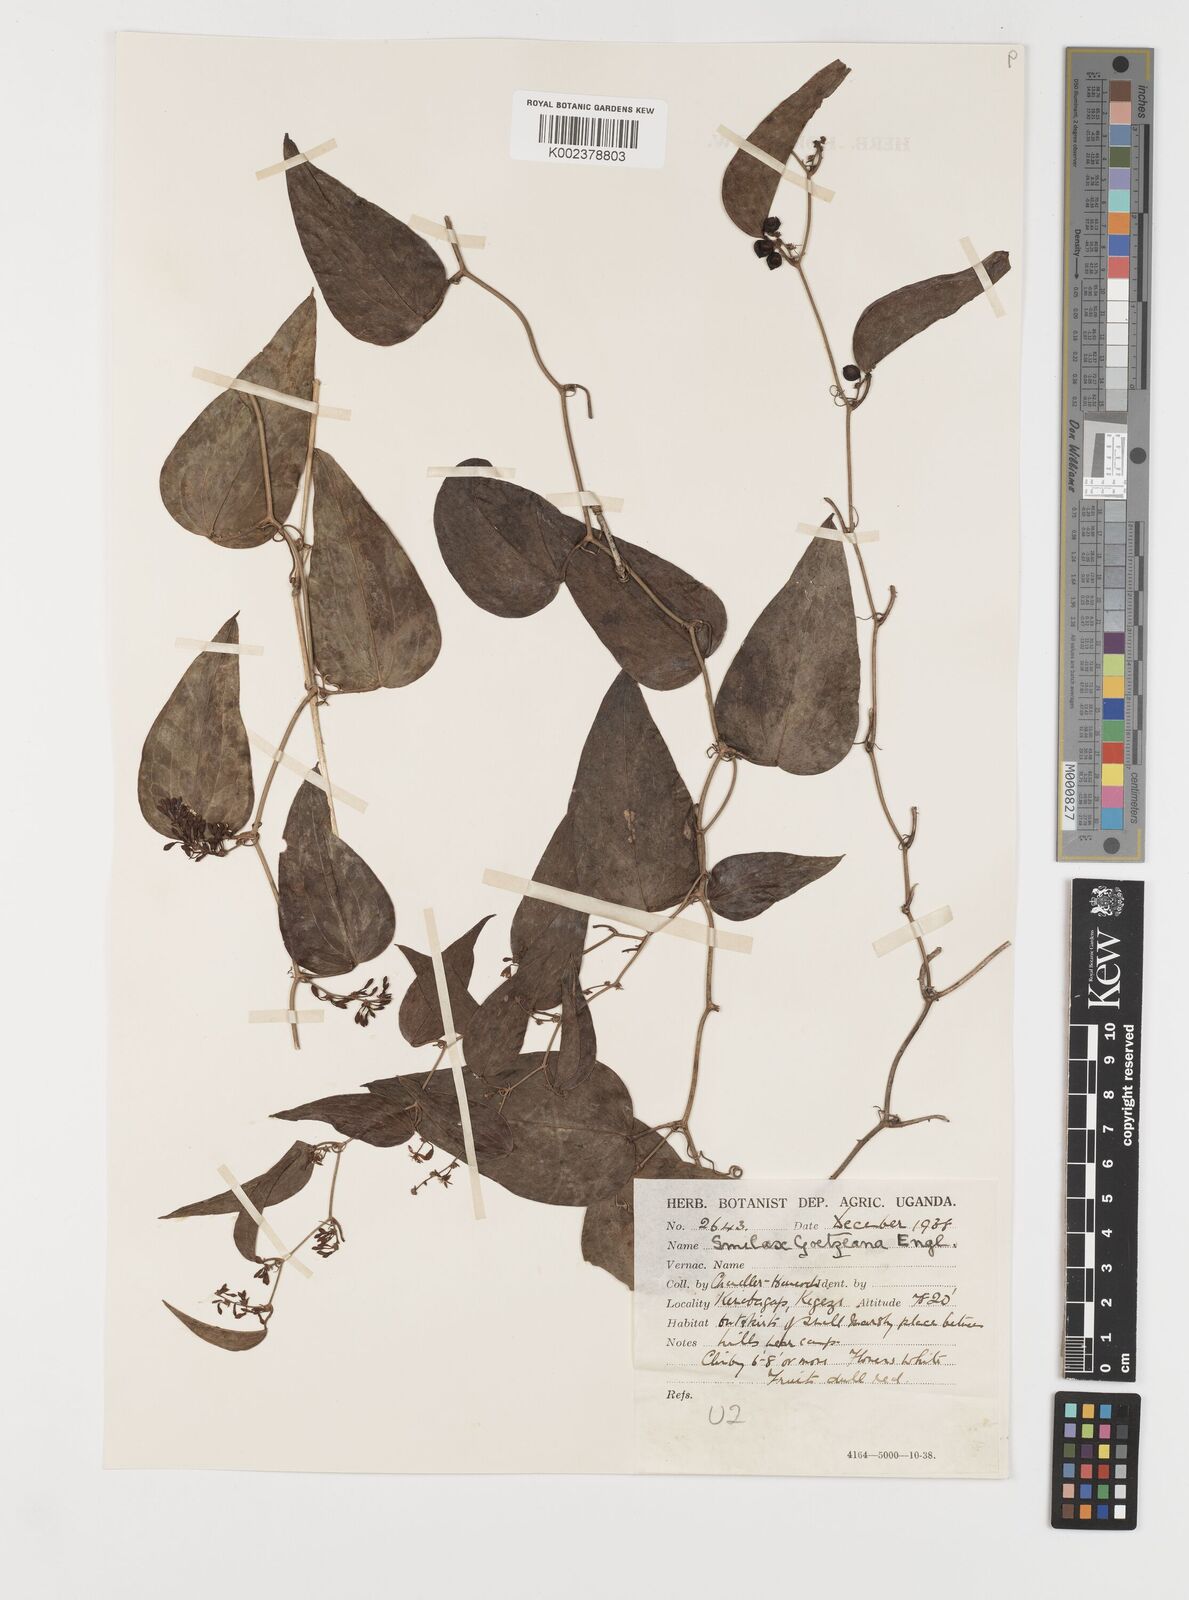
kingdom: Plantae
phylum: Tracheophyta
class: Liliopsida
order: Liliales
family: Smilacaceae
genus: Smilax
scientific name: Smilax aspera
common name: Common smilax
